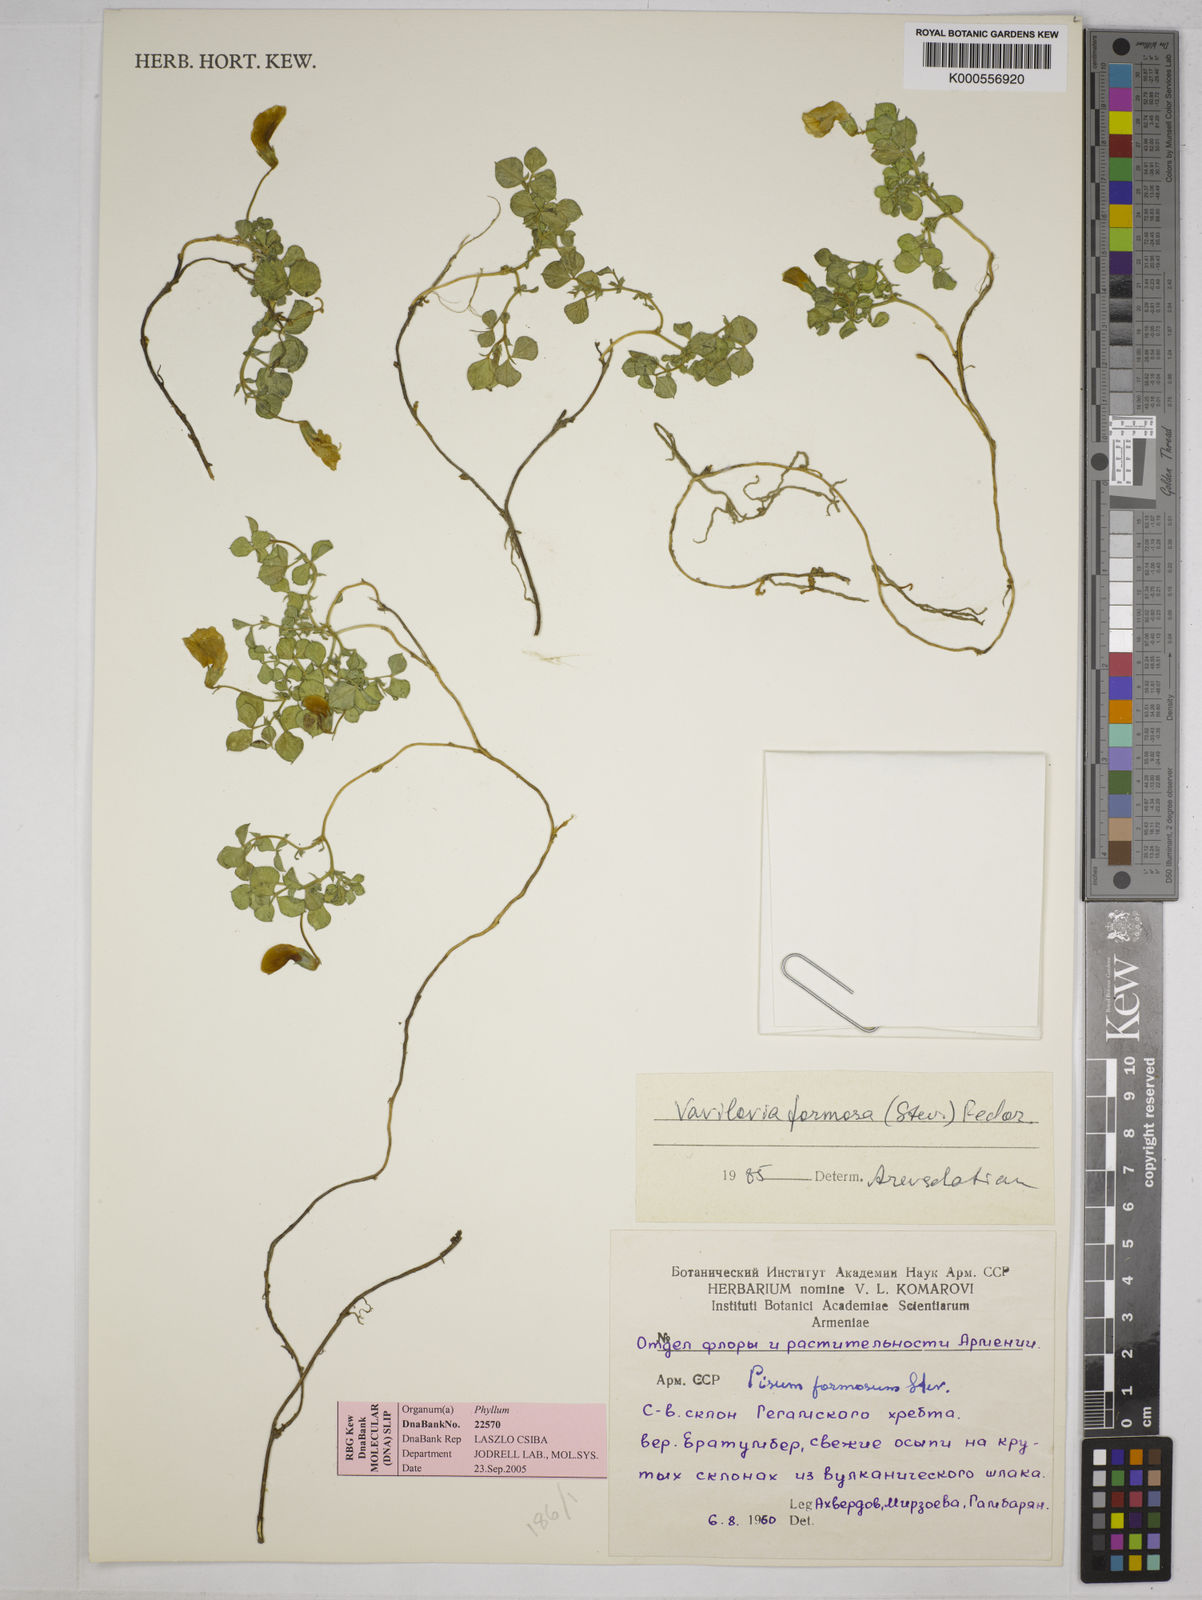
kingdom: Plantae
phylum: Tracheophyta
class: Magnoliopsida
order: Fabales
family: Fabaceae
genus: Lathyrus
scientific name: Lathyrus formosus
